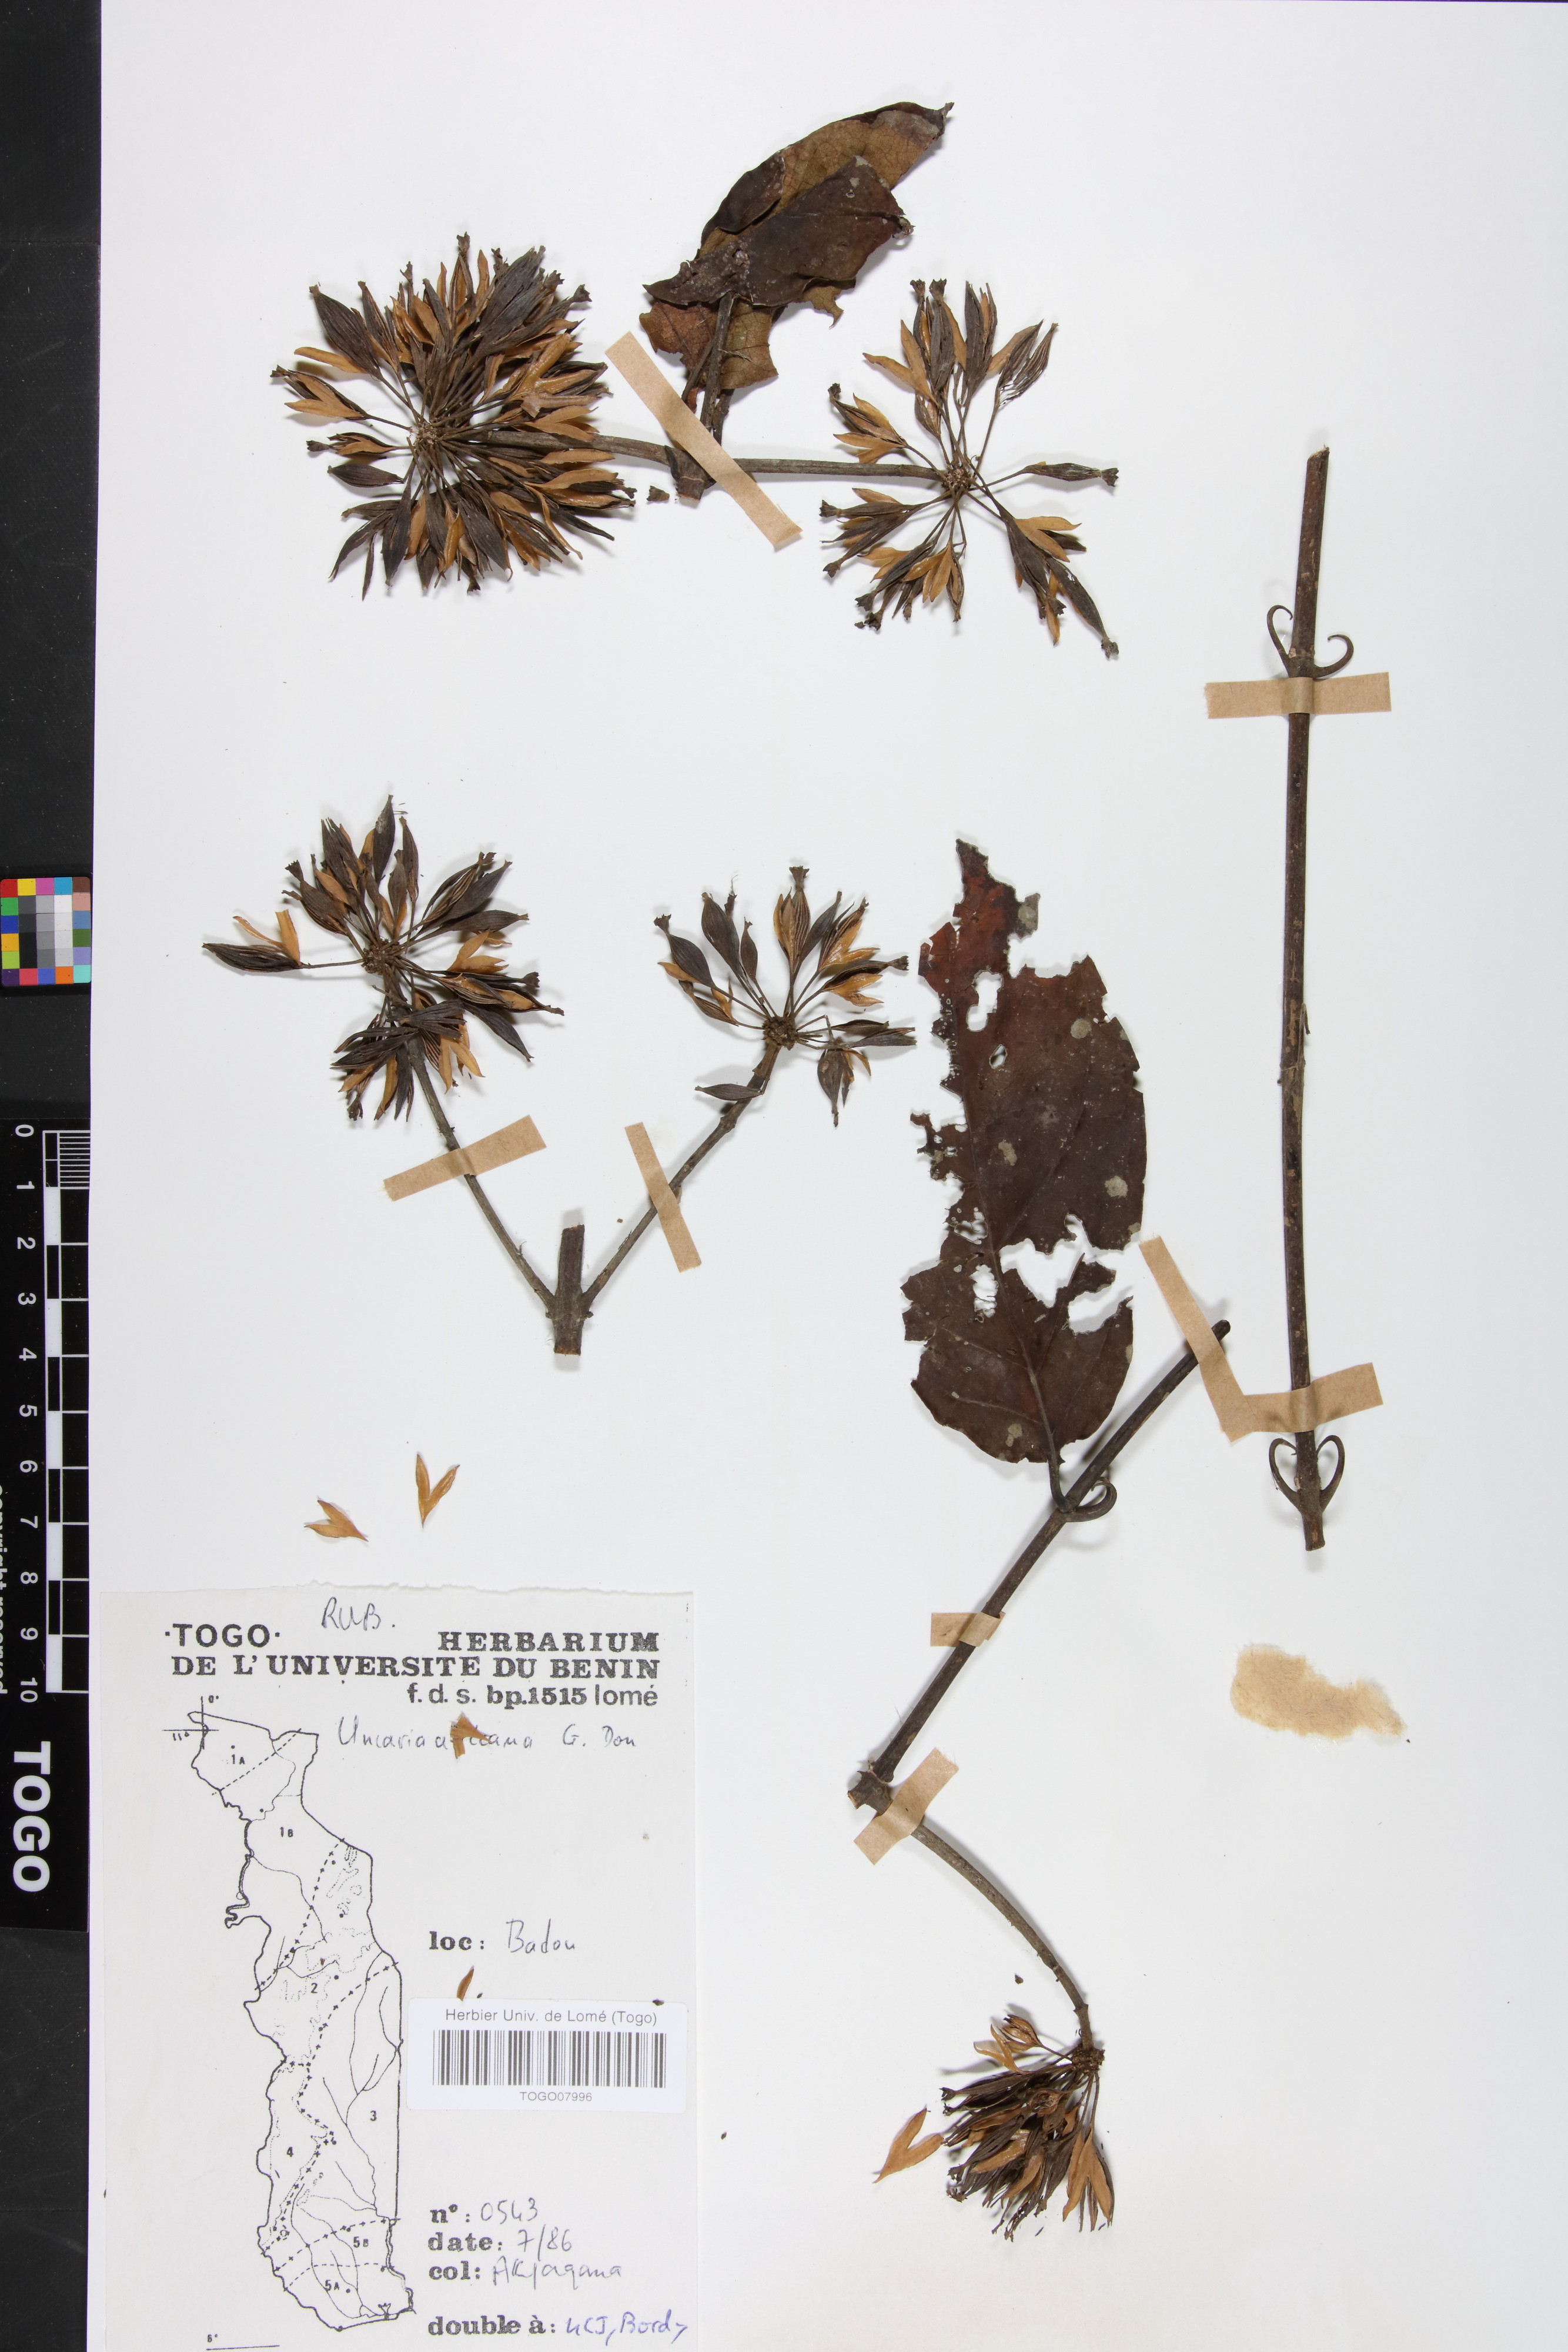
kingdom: Plantae
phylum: Tracheophyta
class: Magnoliopsida
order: Gentianales
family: Rubiaceae
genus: Uncaria
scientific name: Uncaria africana
